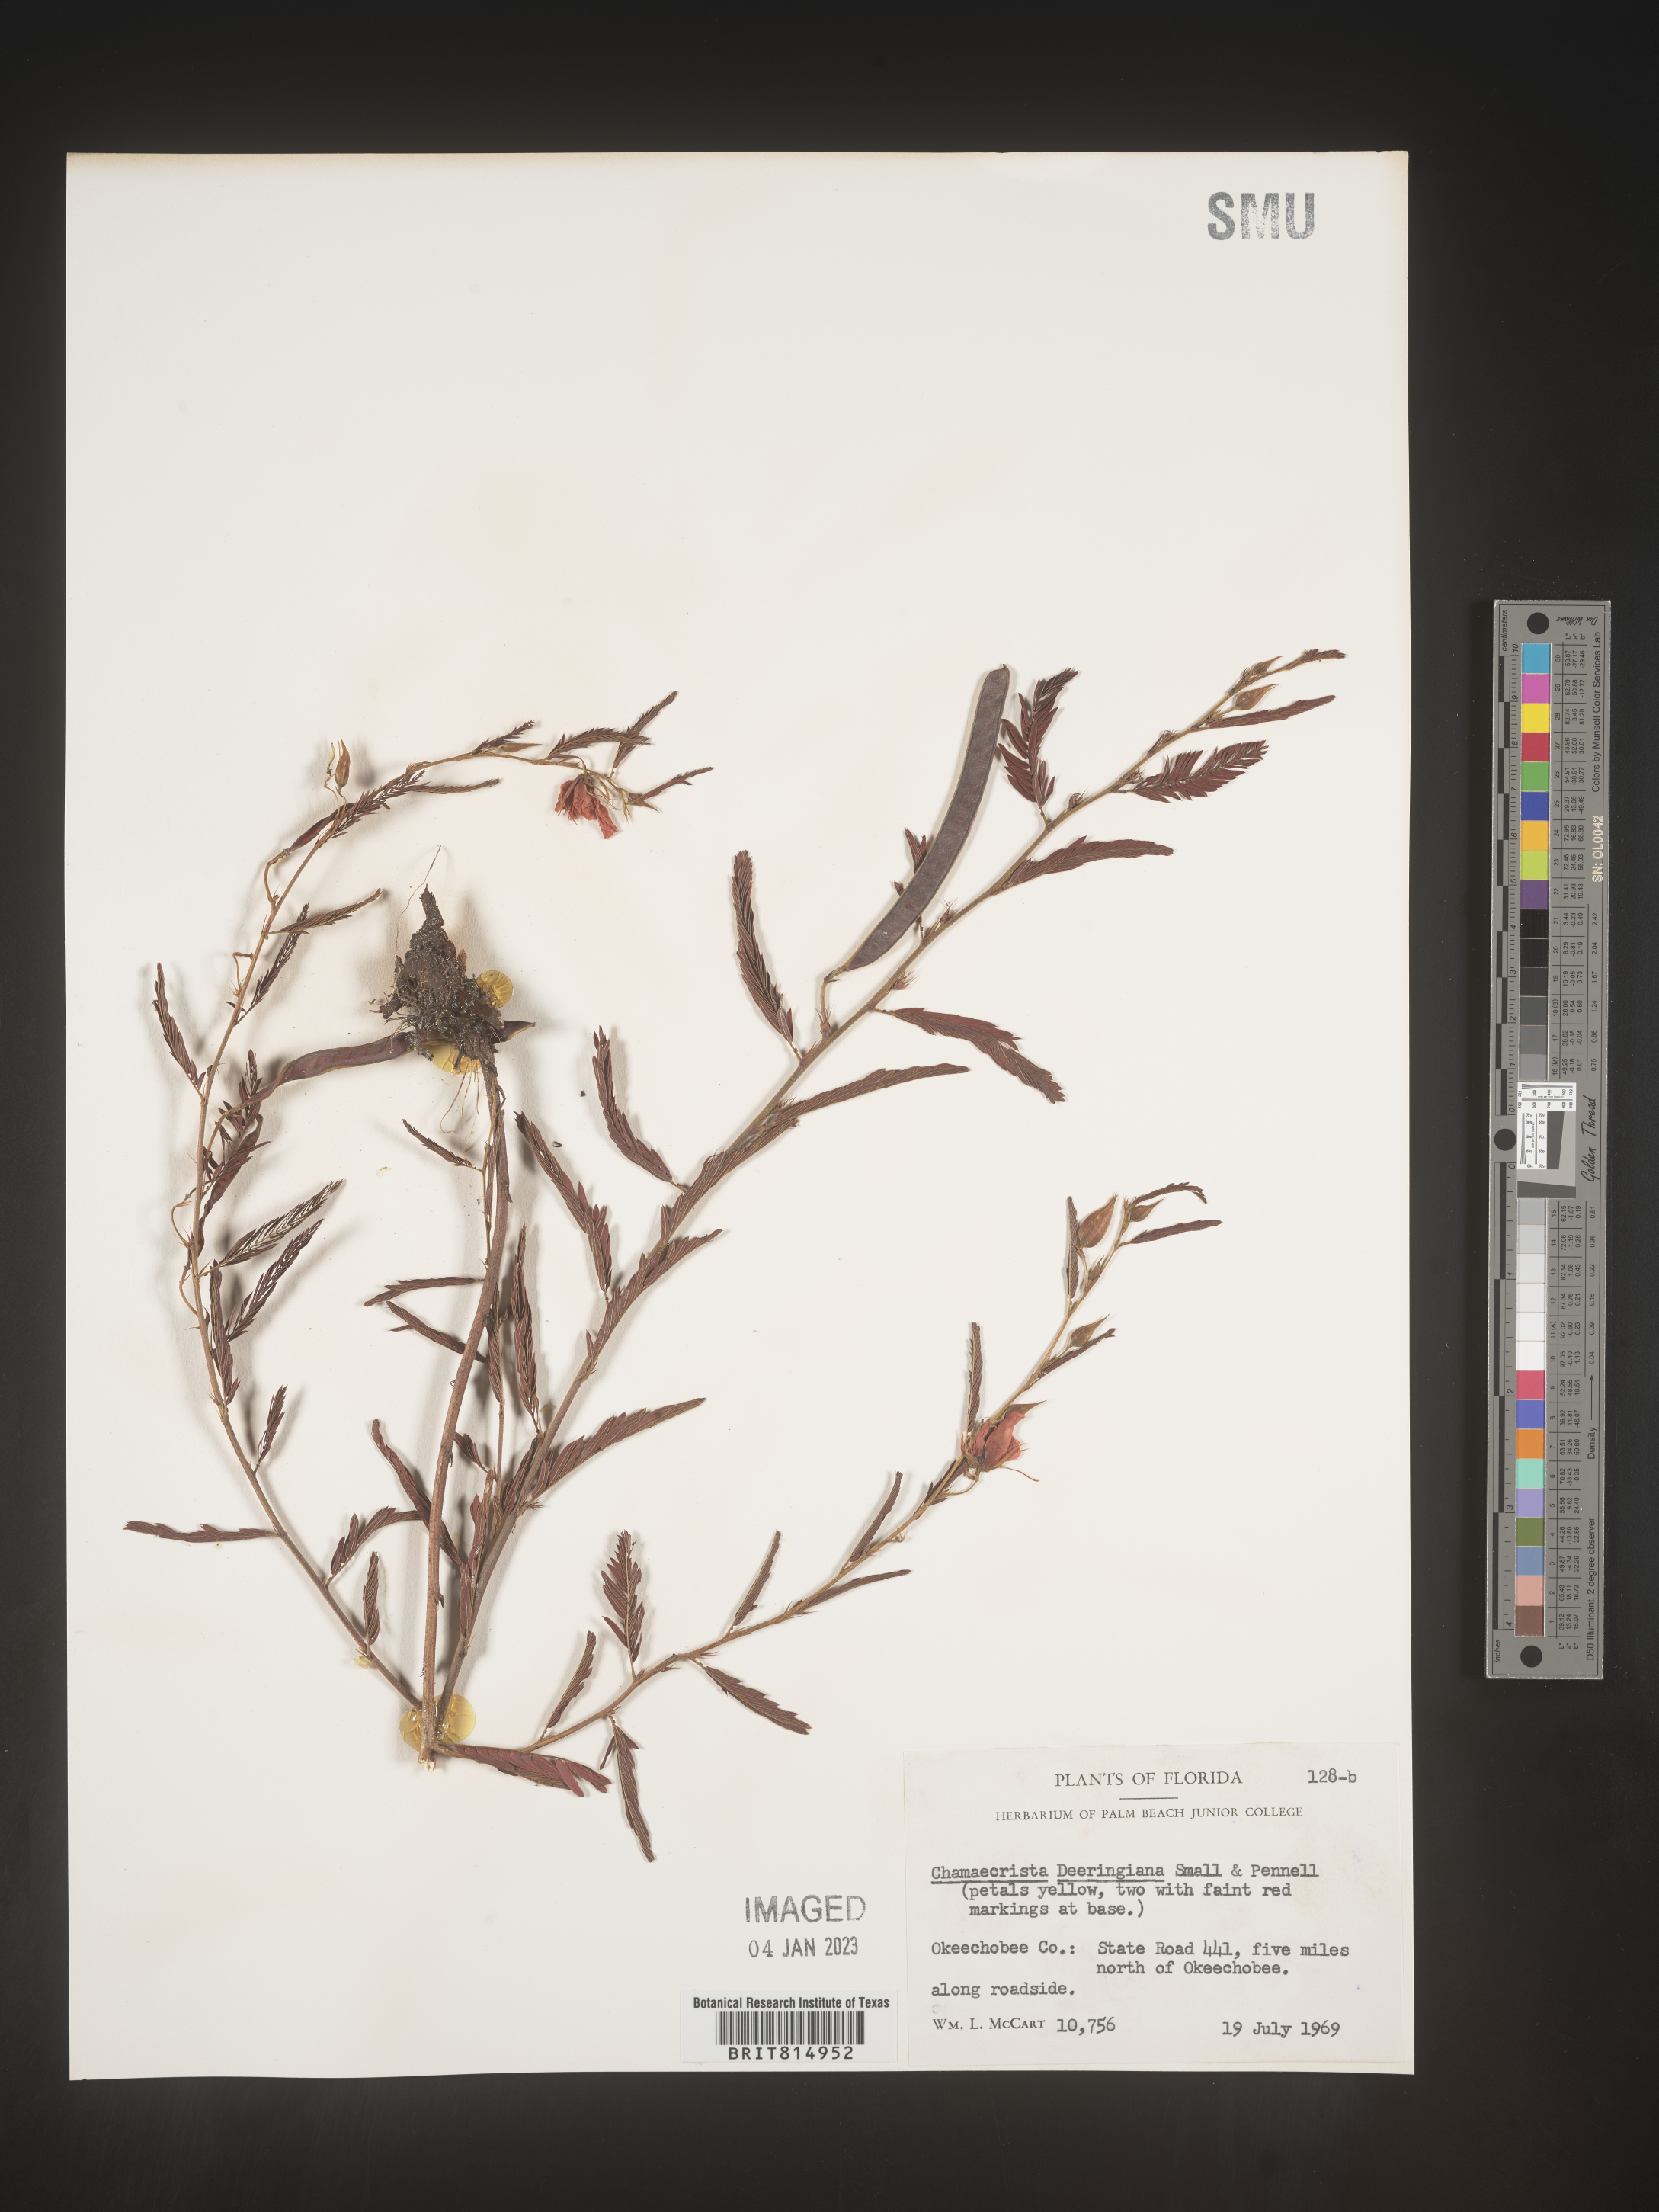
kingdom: Plantae
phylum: Tracheophyta
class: Magnoliopsida
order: Fabales
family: Fabaceae
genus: Cassia
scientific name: Cassia
